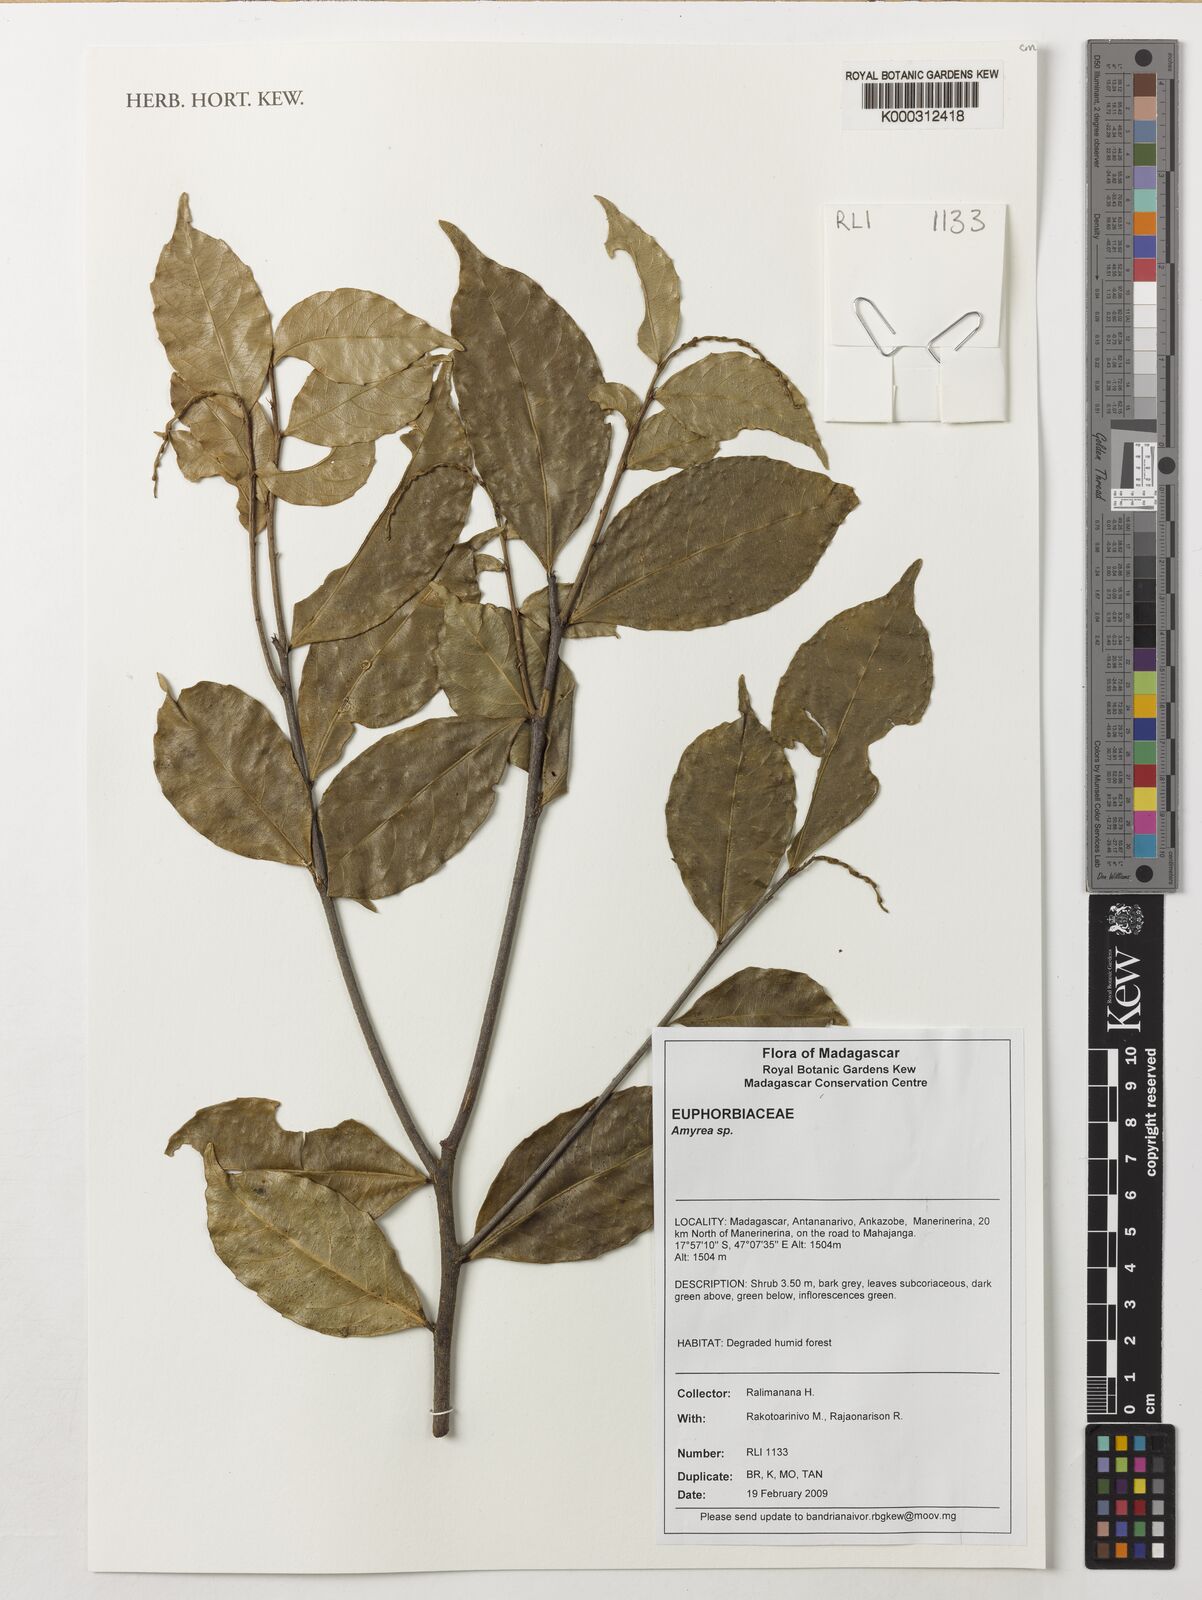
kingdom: Plantae
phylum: Tracheophyta
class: Magnoliopsida
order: Malpighiales
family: Euphorbiaceae
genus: Amyrea
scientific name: Amyrea
